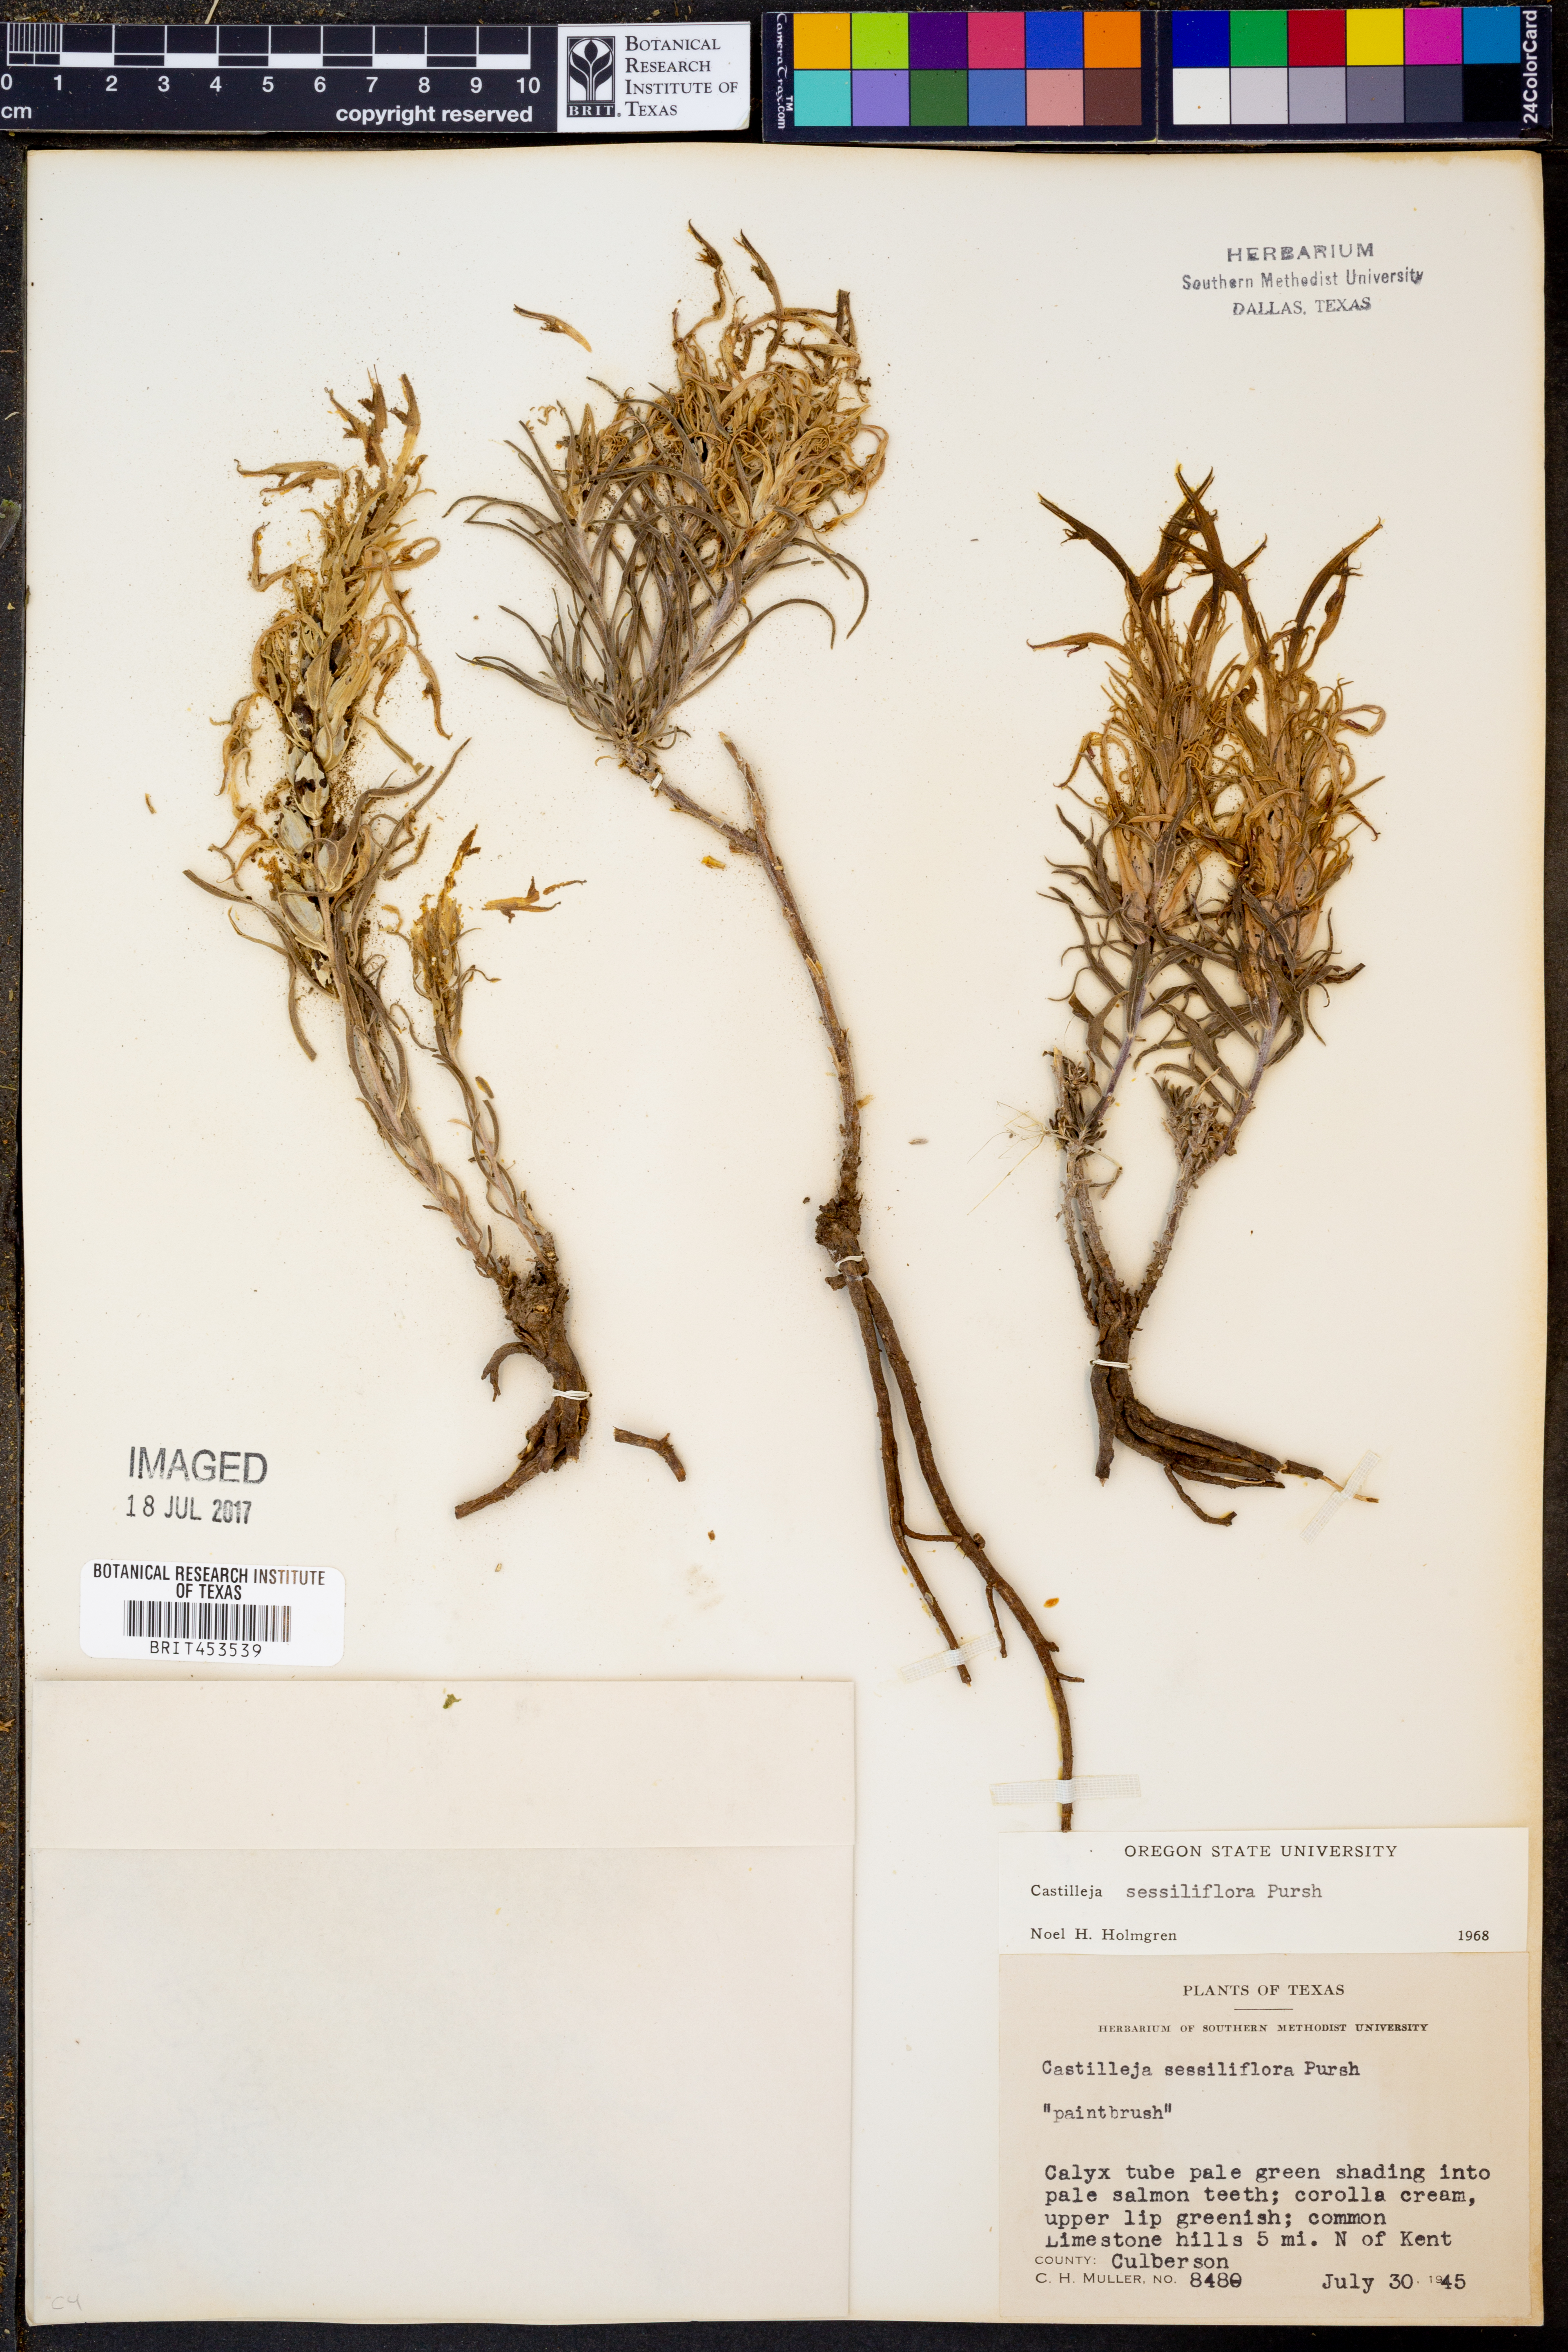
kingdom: Plantae
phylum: Tracheophyta
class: Magnoliopsida
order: Lamiales
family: Orobanchaceae
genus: Castilleja
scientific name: Castilleja sessiliflora
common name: Downy paintbrush
